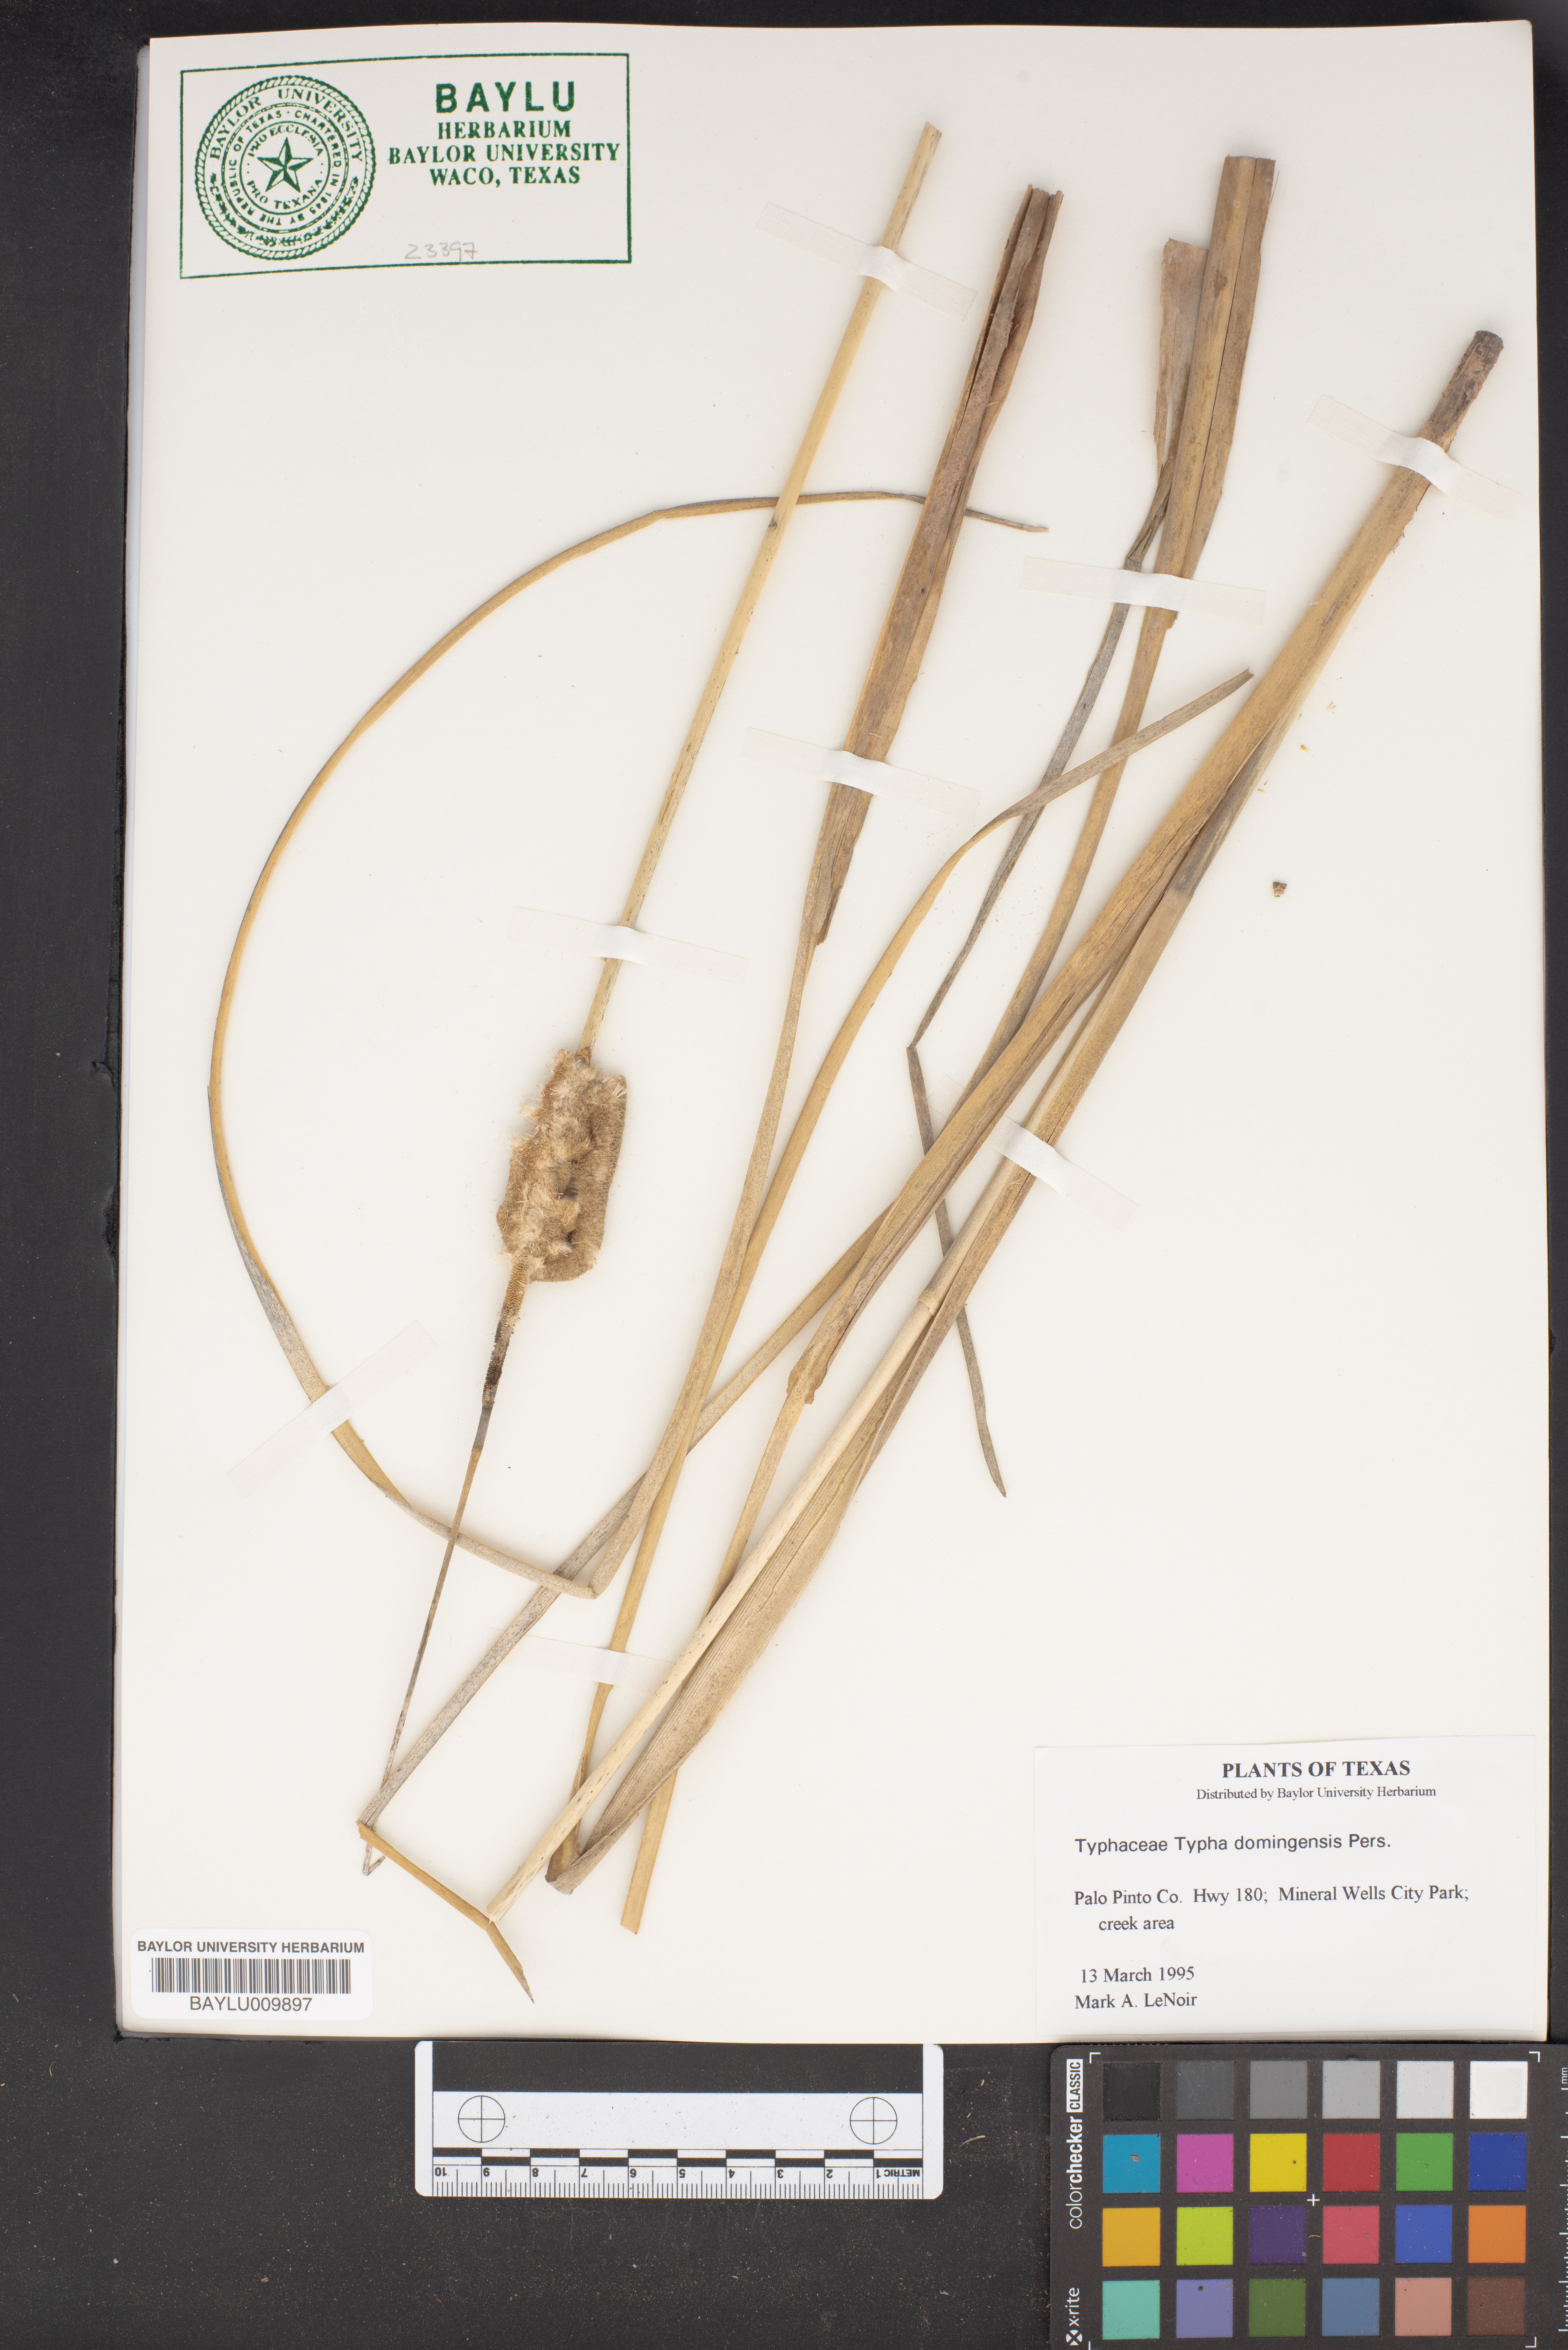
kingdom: Plantae
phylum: Tracheophyta
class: Liliopsida
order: Poales
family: Typhaceae
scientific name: Typhaceae
